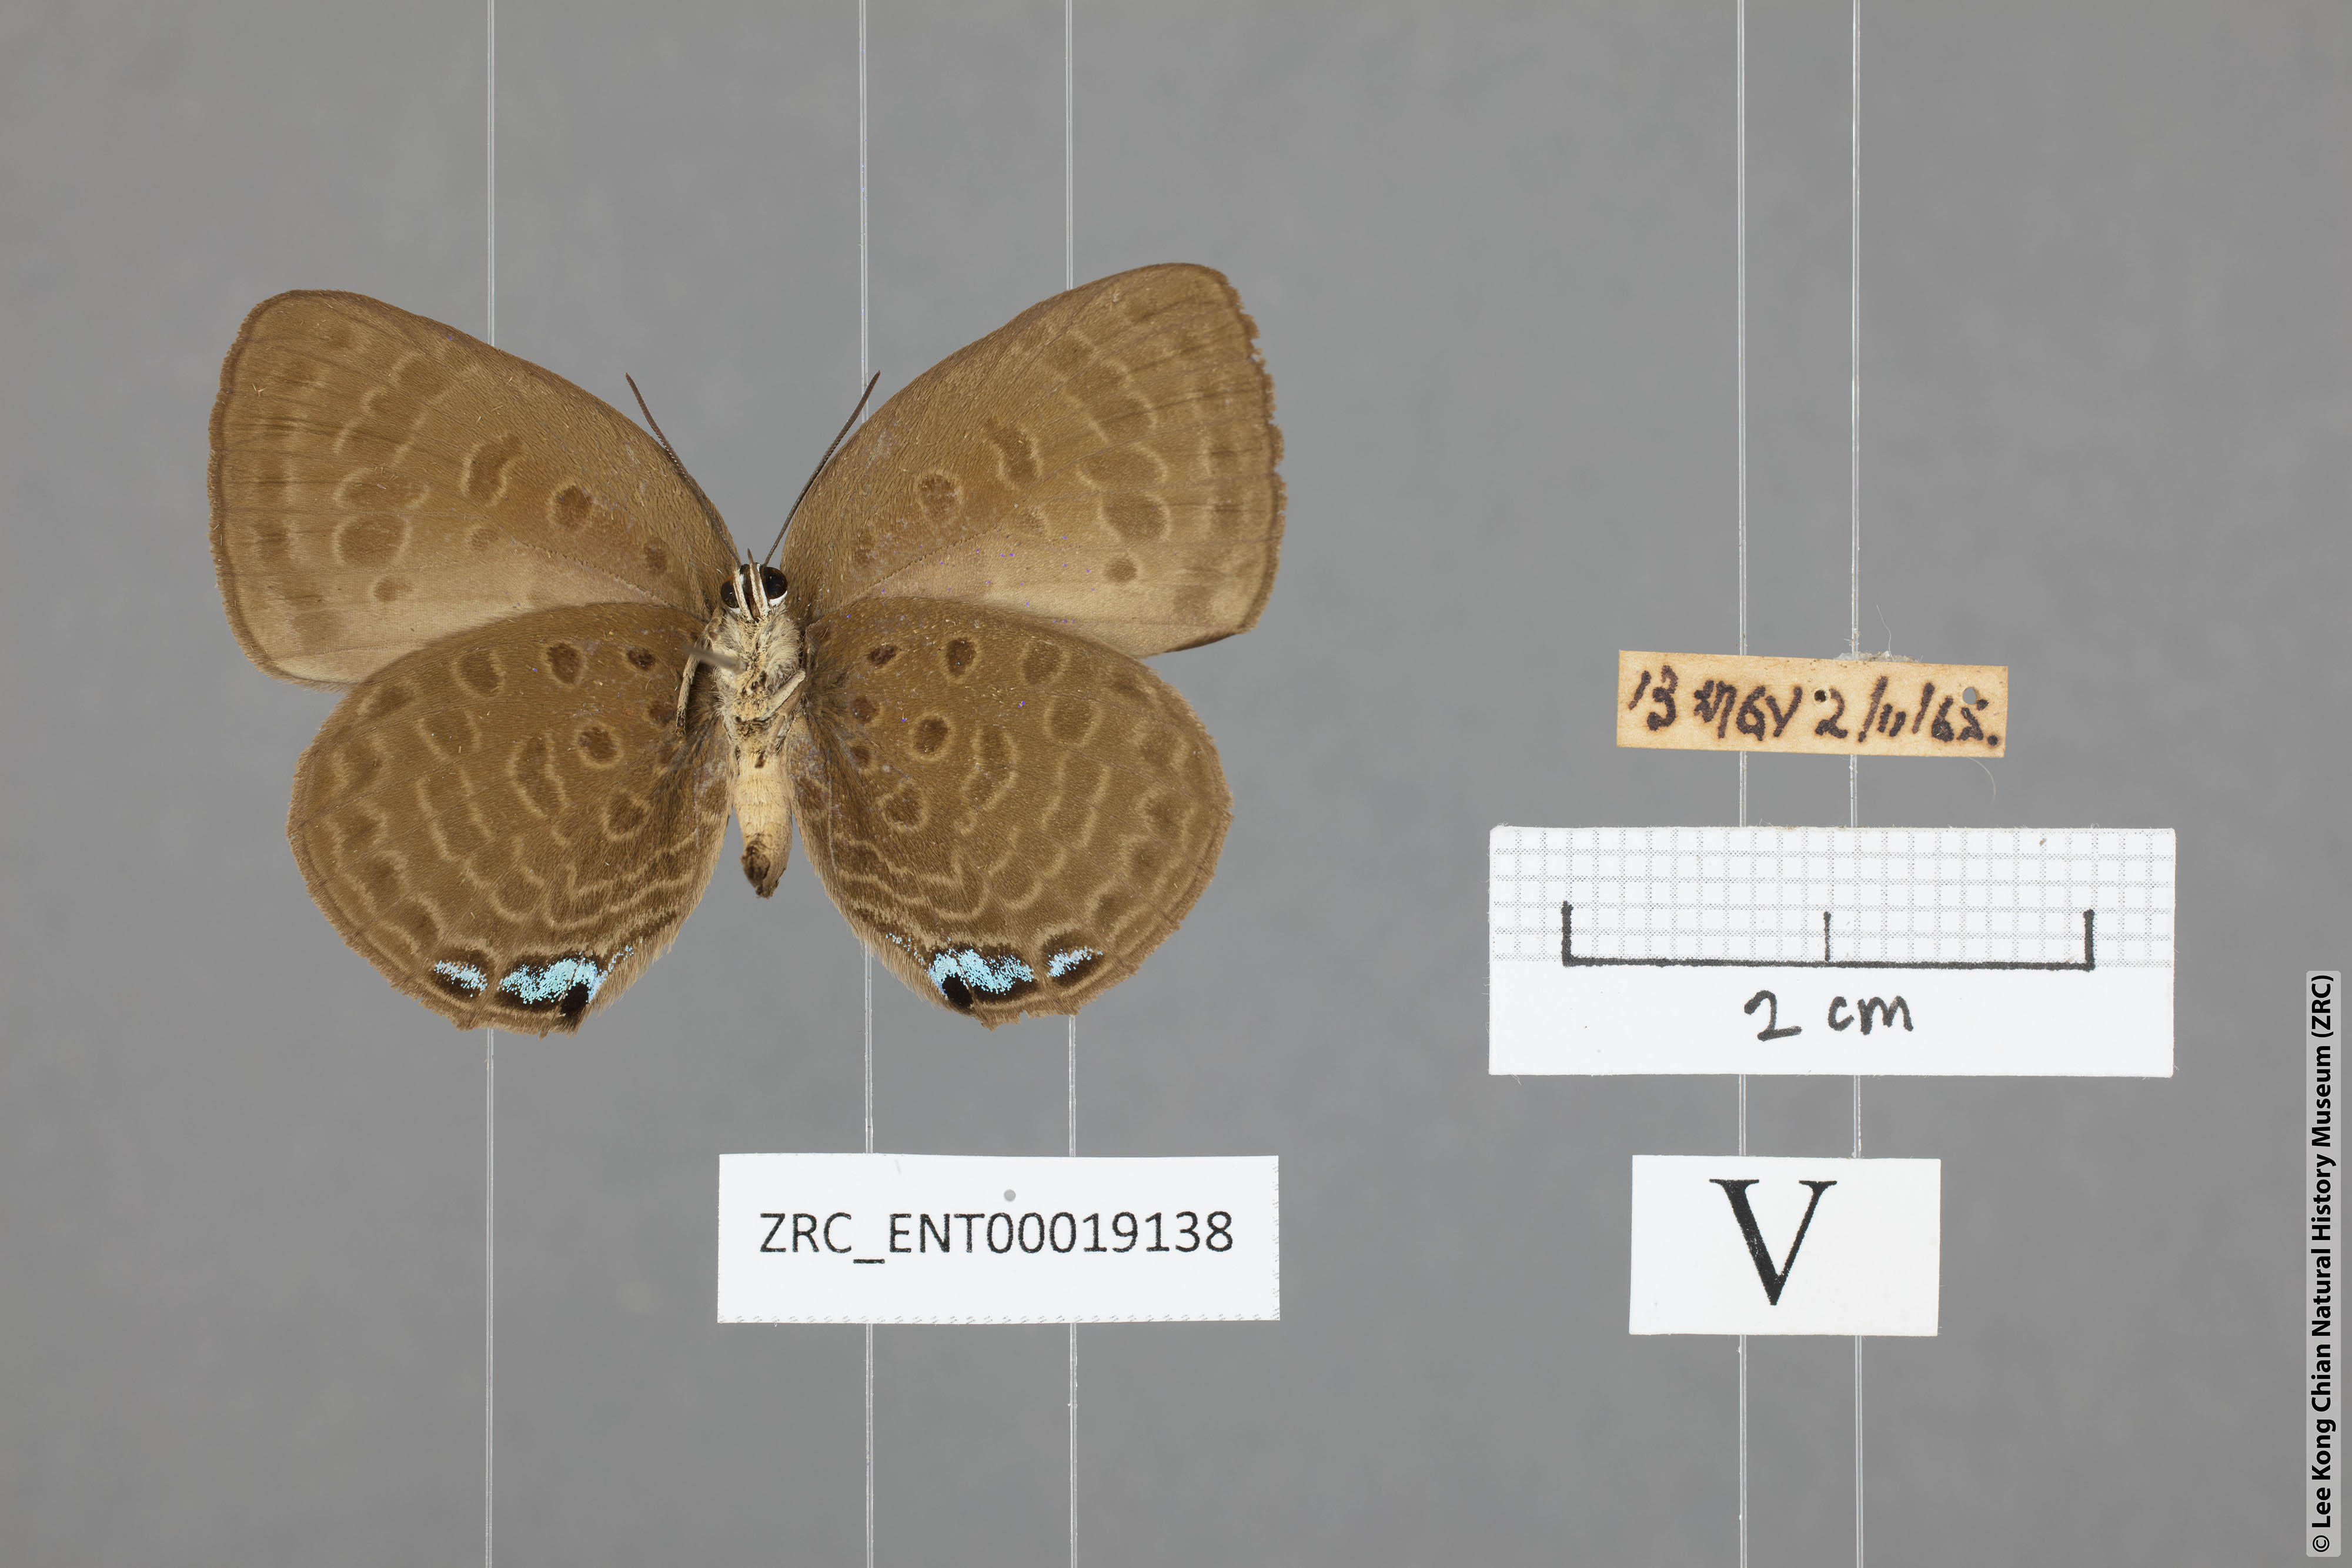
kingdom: Animalia
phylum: Arthropoda
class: Insecta
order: Lepidoptera
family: Lycaenidae
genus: Arhopala
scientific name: Arhopala amphimuta
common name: Broad yellow oakblue
